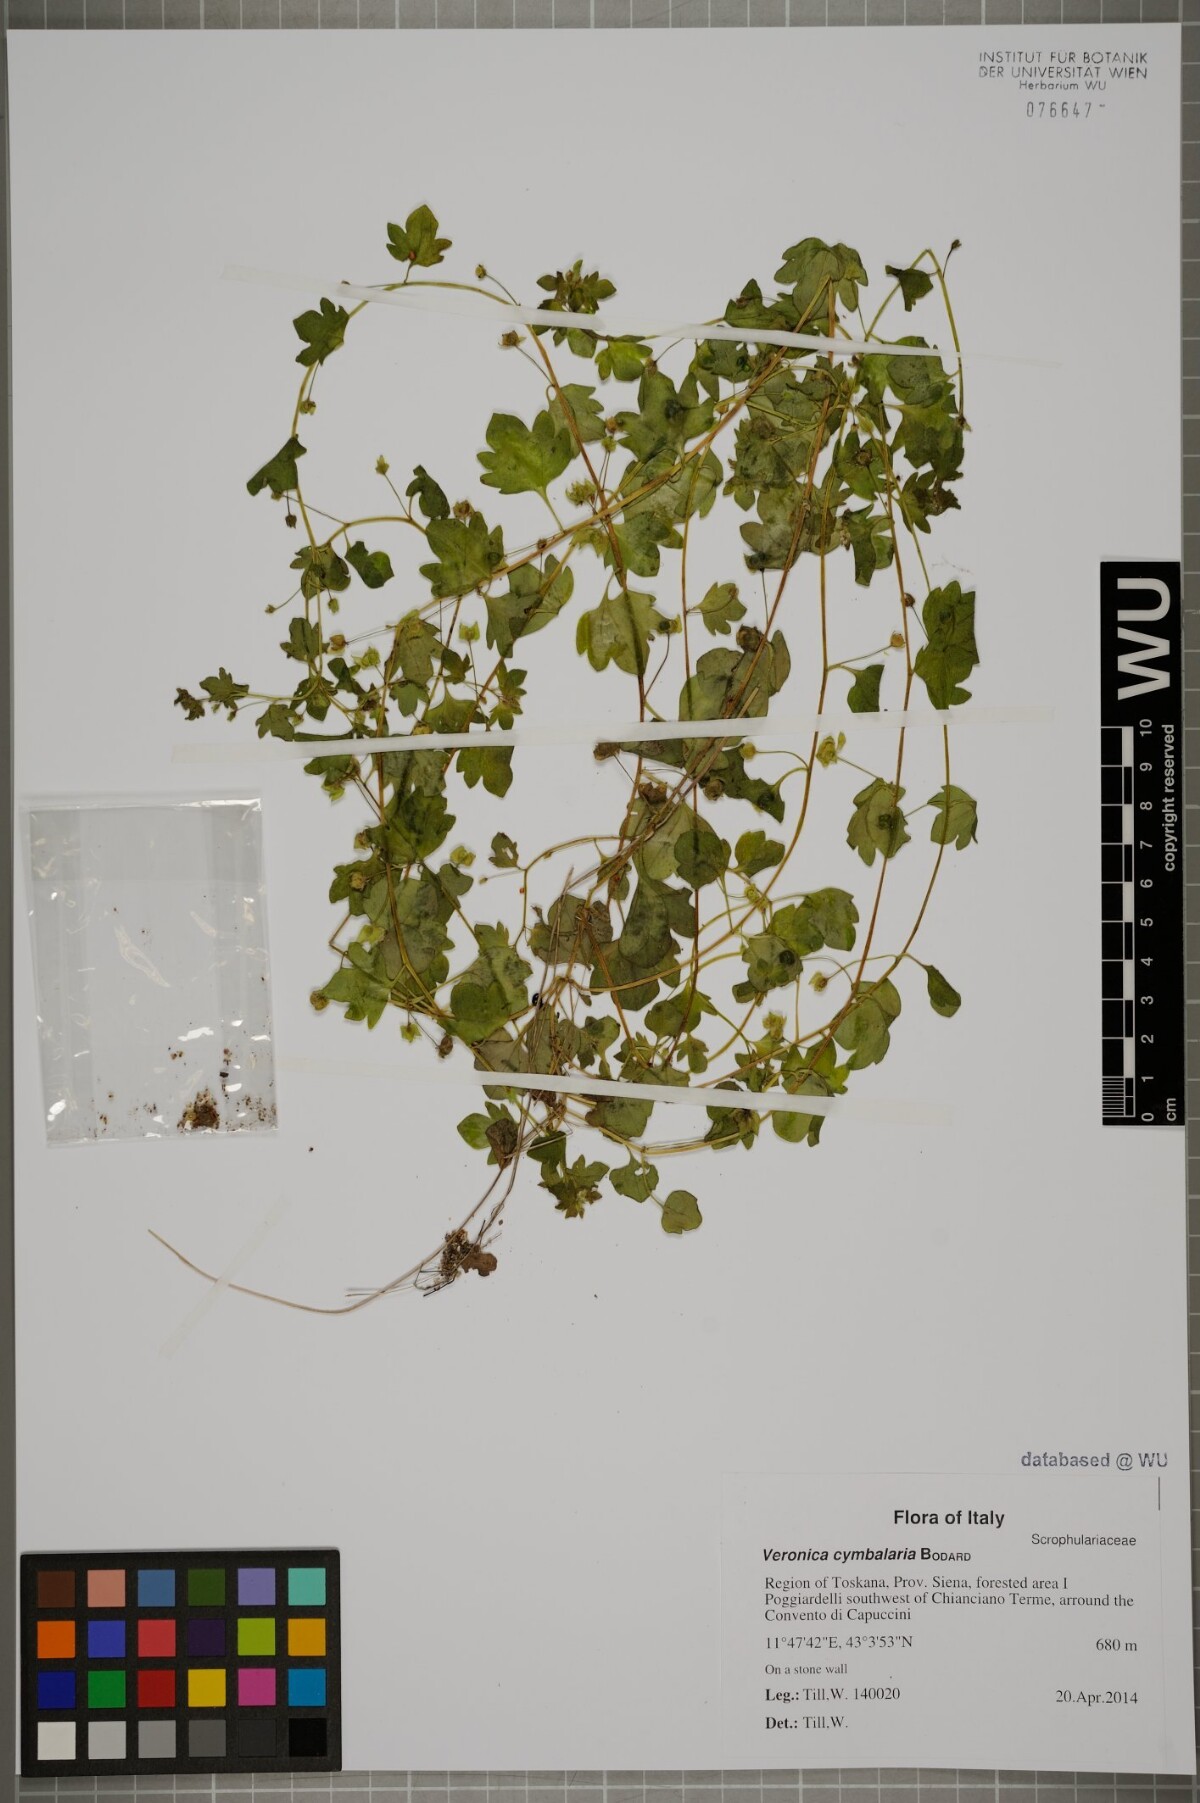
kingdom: Plantae
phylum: Tracheophyta
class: Magnoliopsida
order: Lamiales
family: Plantaginaceae
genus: Veronica
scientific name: Veronica cymbalaria
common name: Pale speedwell
